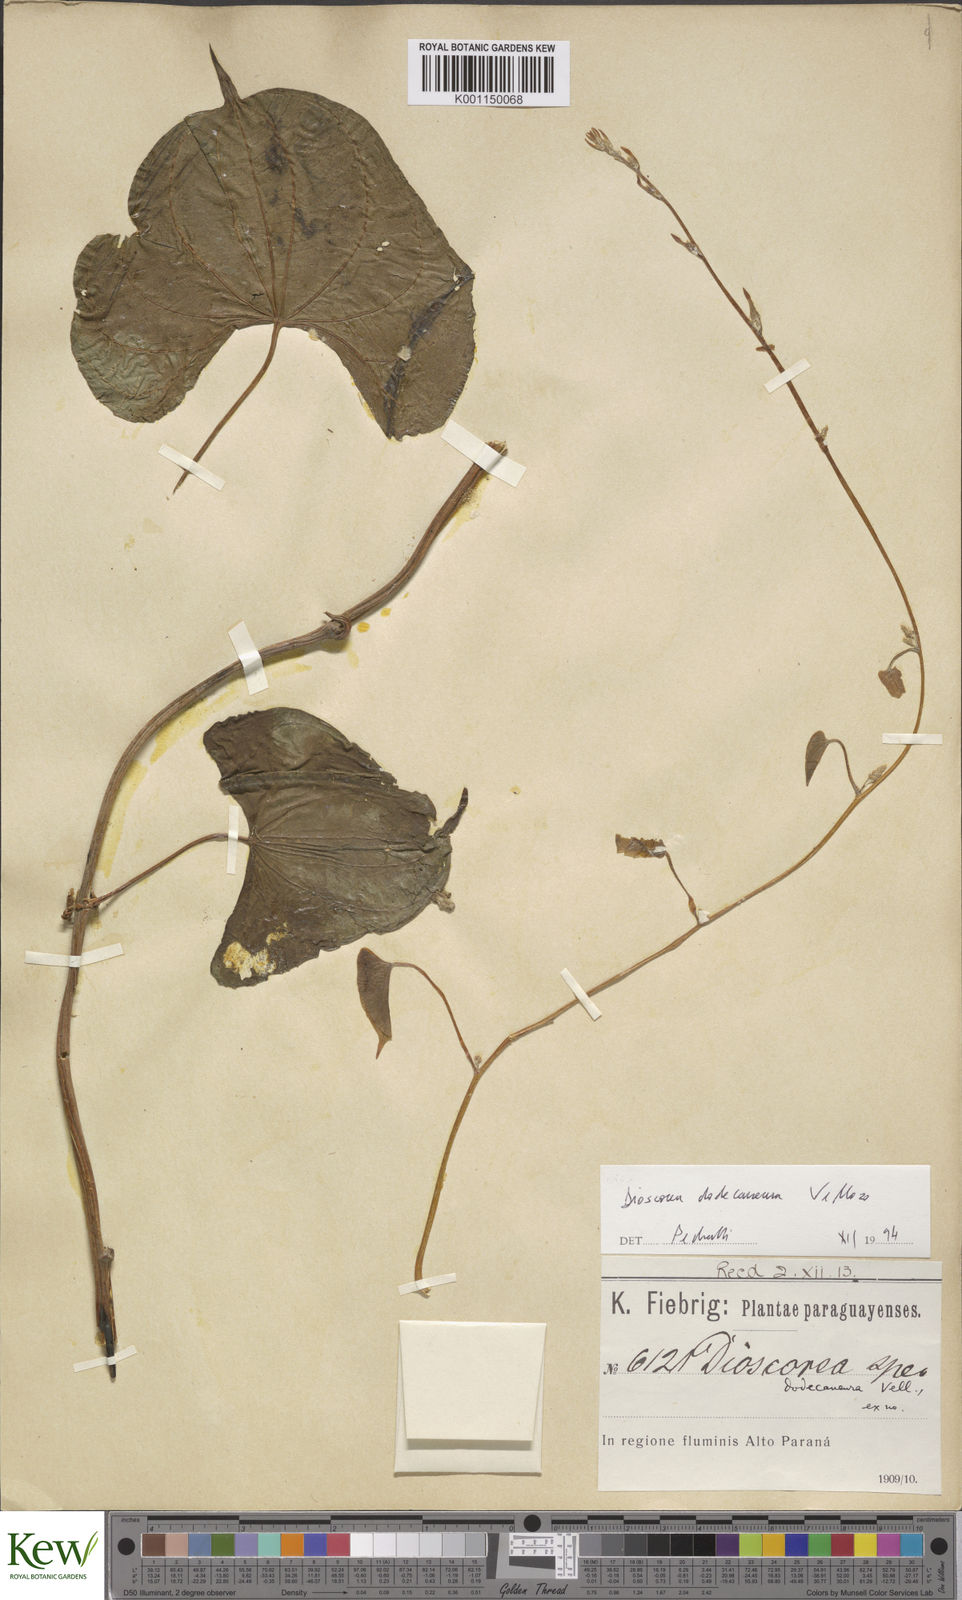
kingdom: Plantae
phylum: Tracheophyta
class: Liliopsida
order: Dioscoreales
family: Dioscoreaceae
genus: Dioscorea
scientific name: Dioscorea dodecaneura
